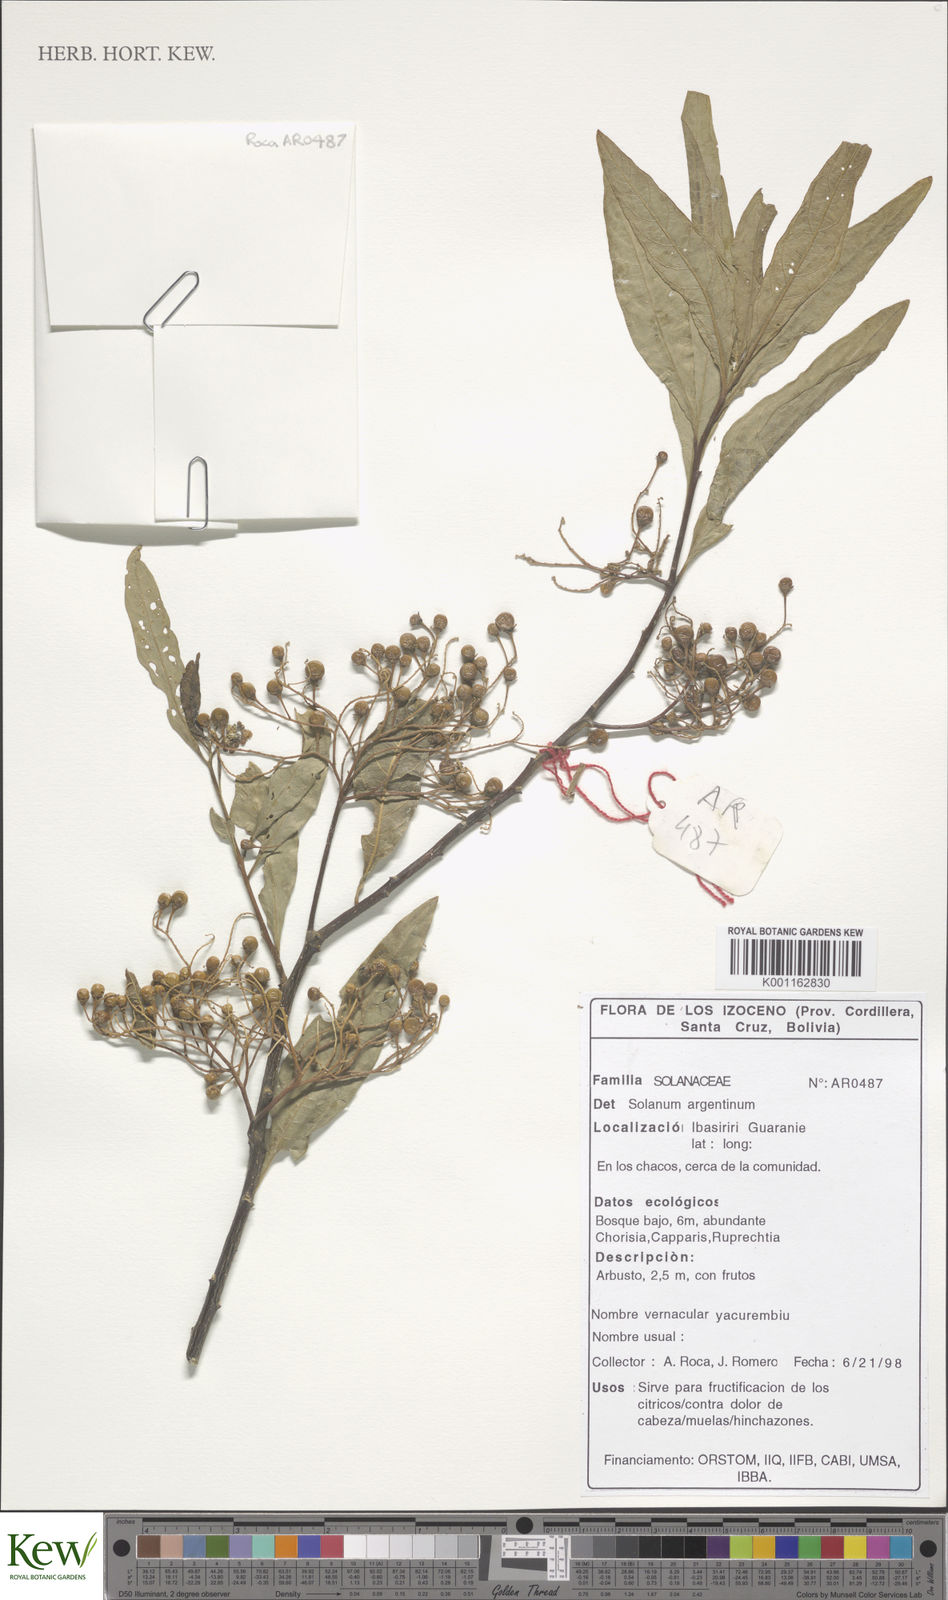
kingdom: Plantae
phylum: Tracheophyta
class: Magnoliopsida
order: Solanales
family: Solanaceae
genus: Solanum
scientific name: Solanum swartzianum
